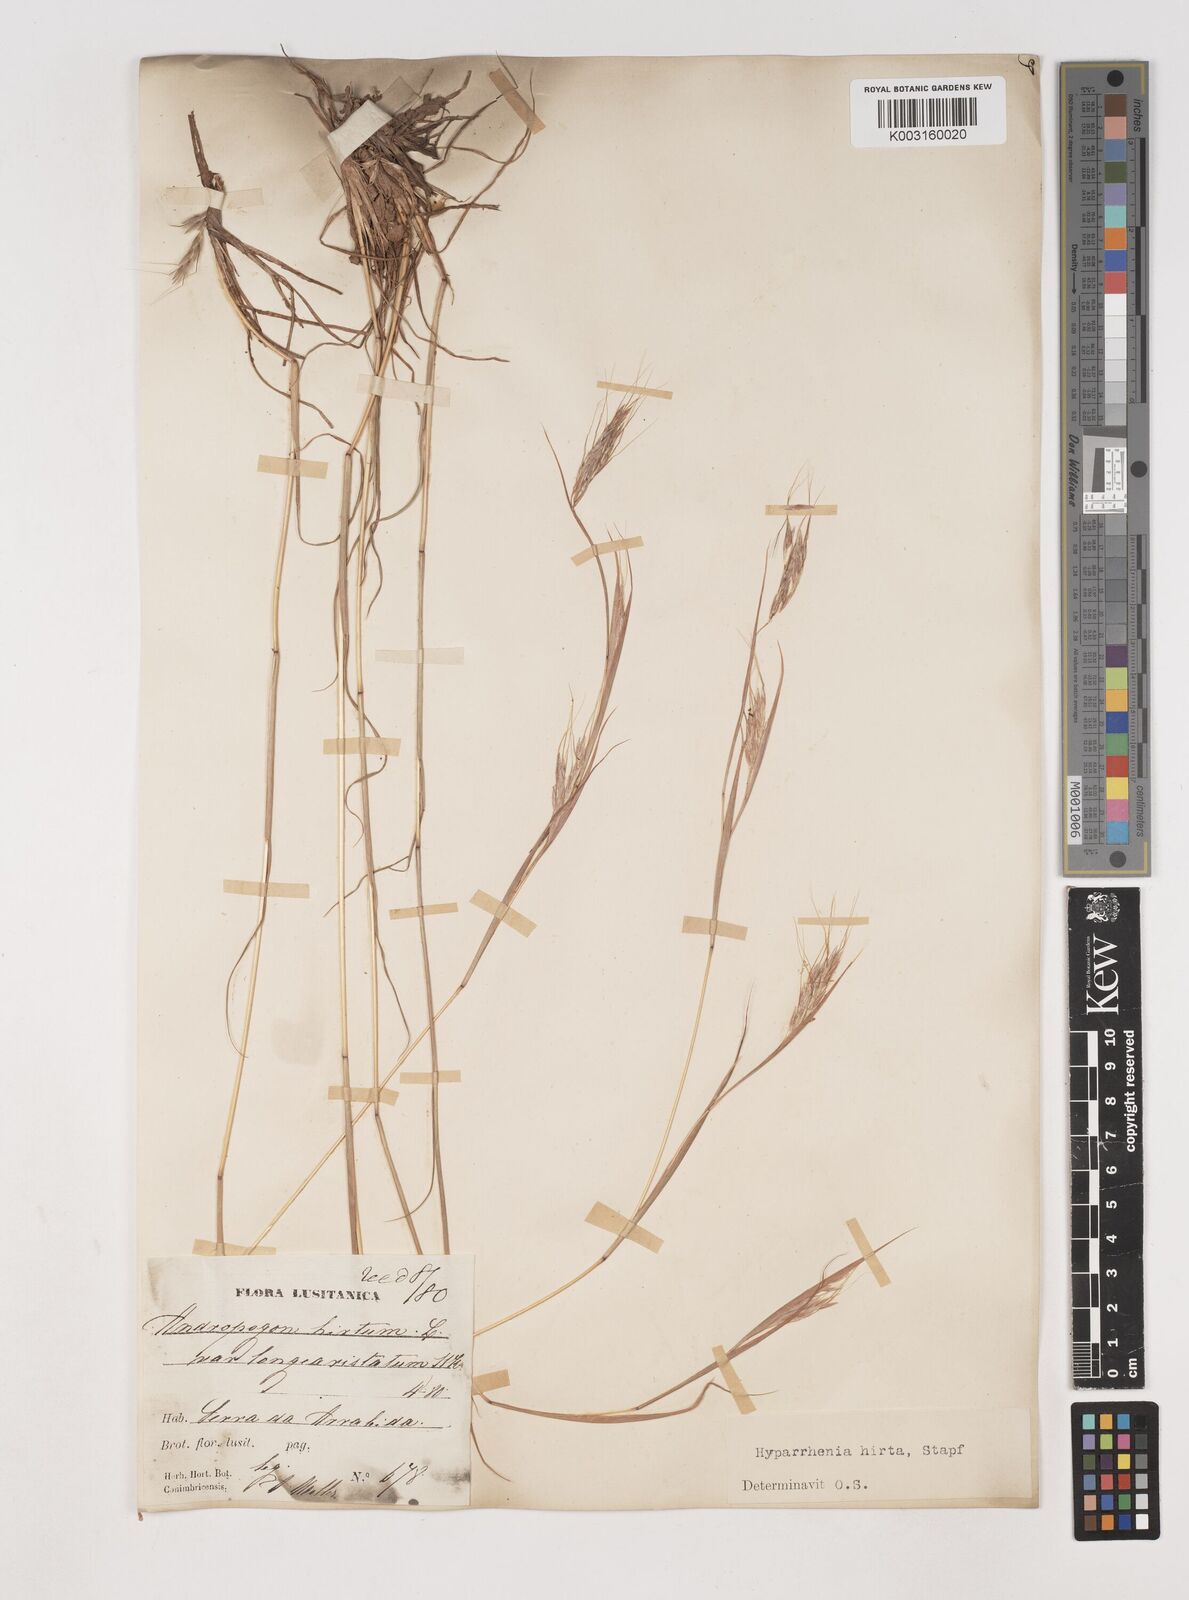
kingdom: Plantae
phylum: Tracheophyta
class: Liliopsida
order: Poales
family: Poaceae
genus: Hyparrhenia
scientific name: Hyparrhenia hirta
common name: Thatching grass
